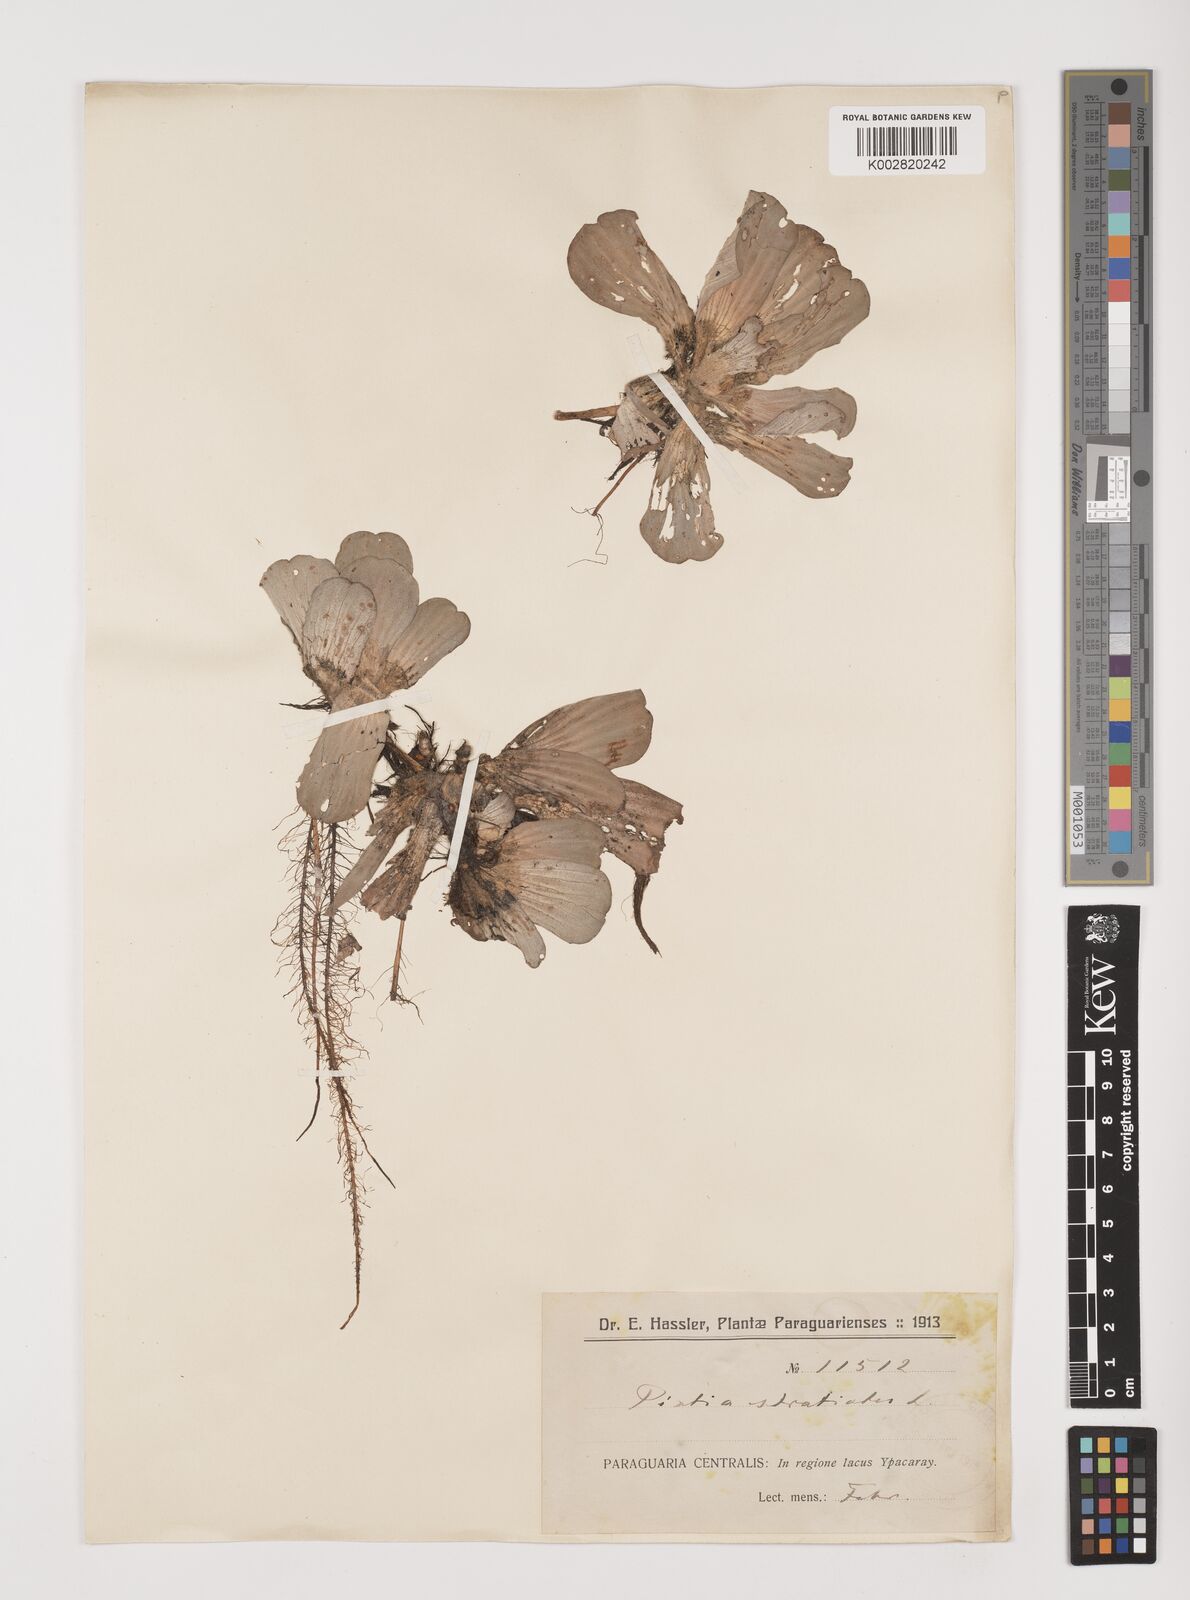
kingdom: Plantae
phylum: Tracheophyta
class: Liliopsida
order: Alismatales
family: Araceae
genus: Pistia
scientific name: Pistia stratiotes
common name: Water lettuce
